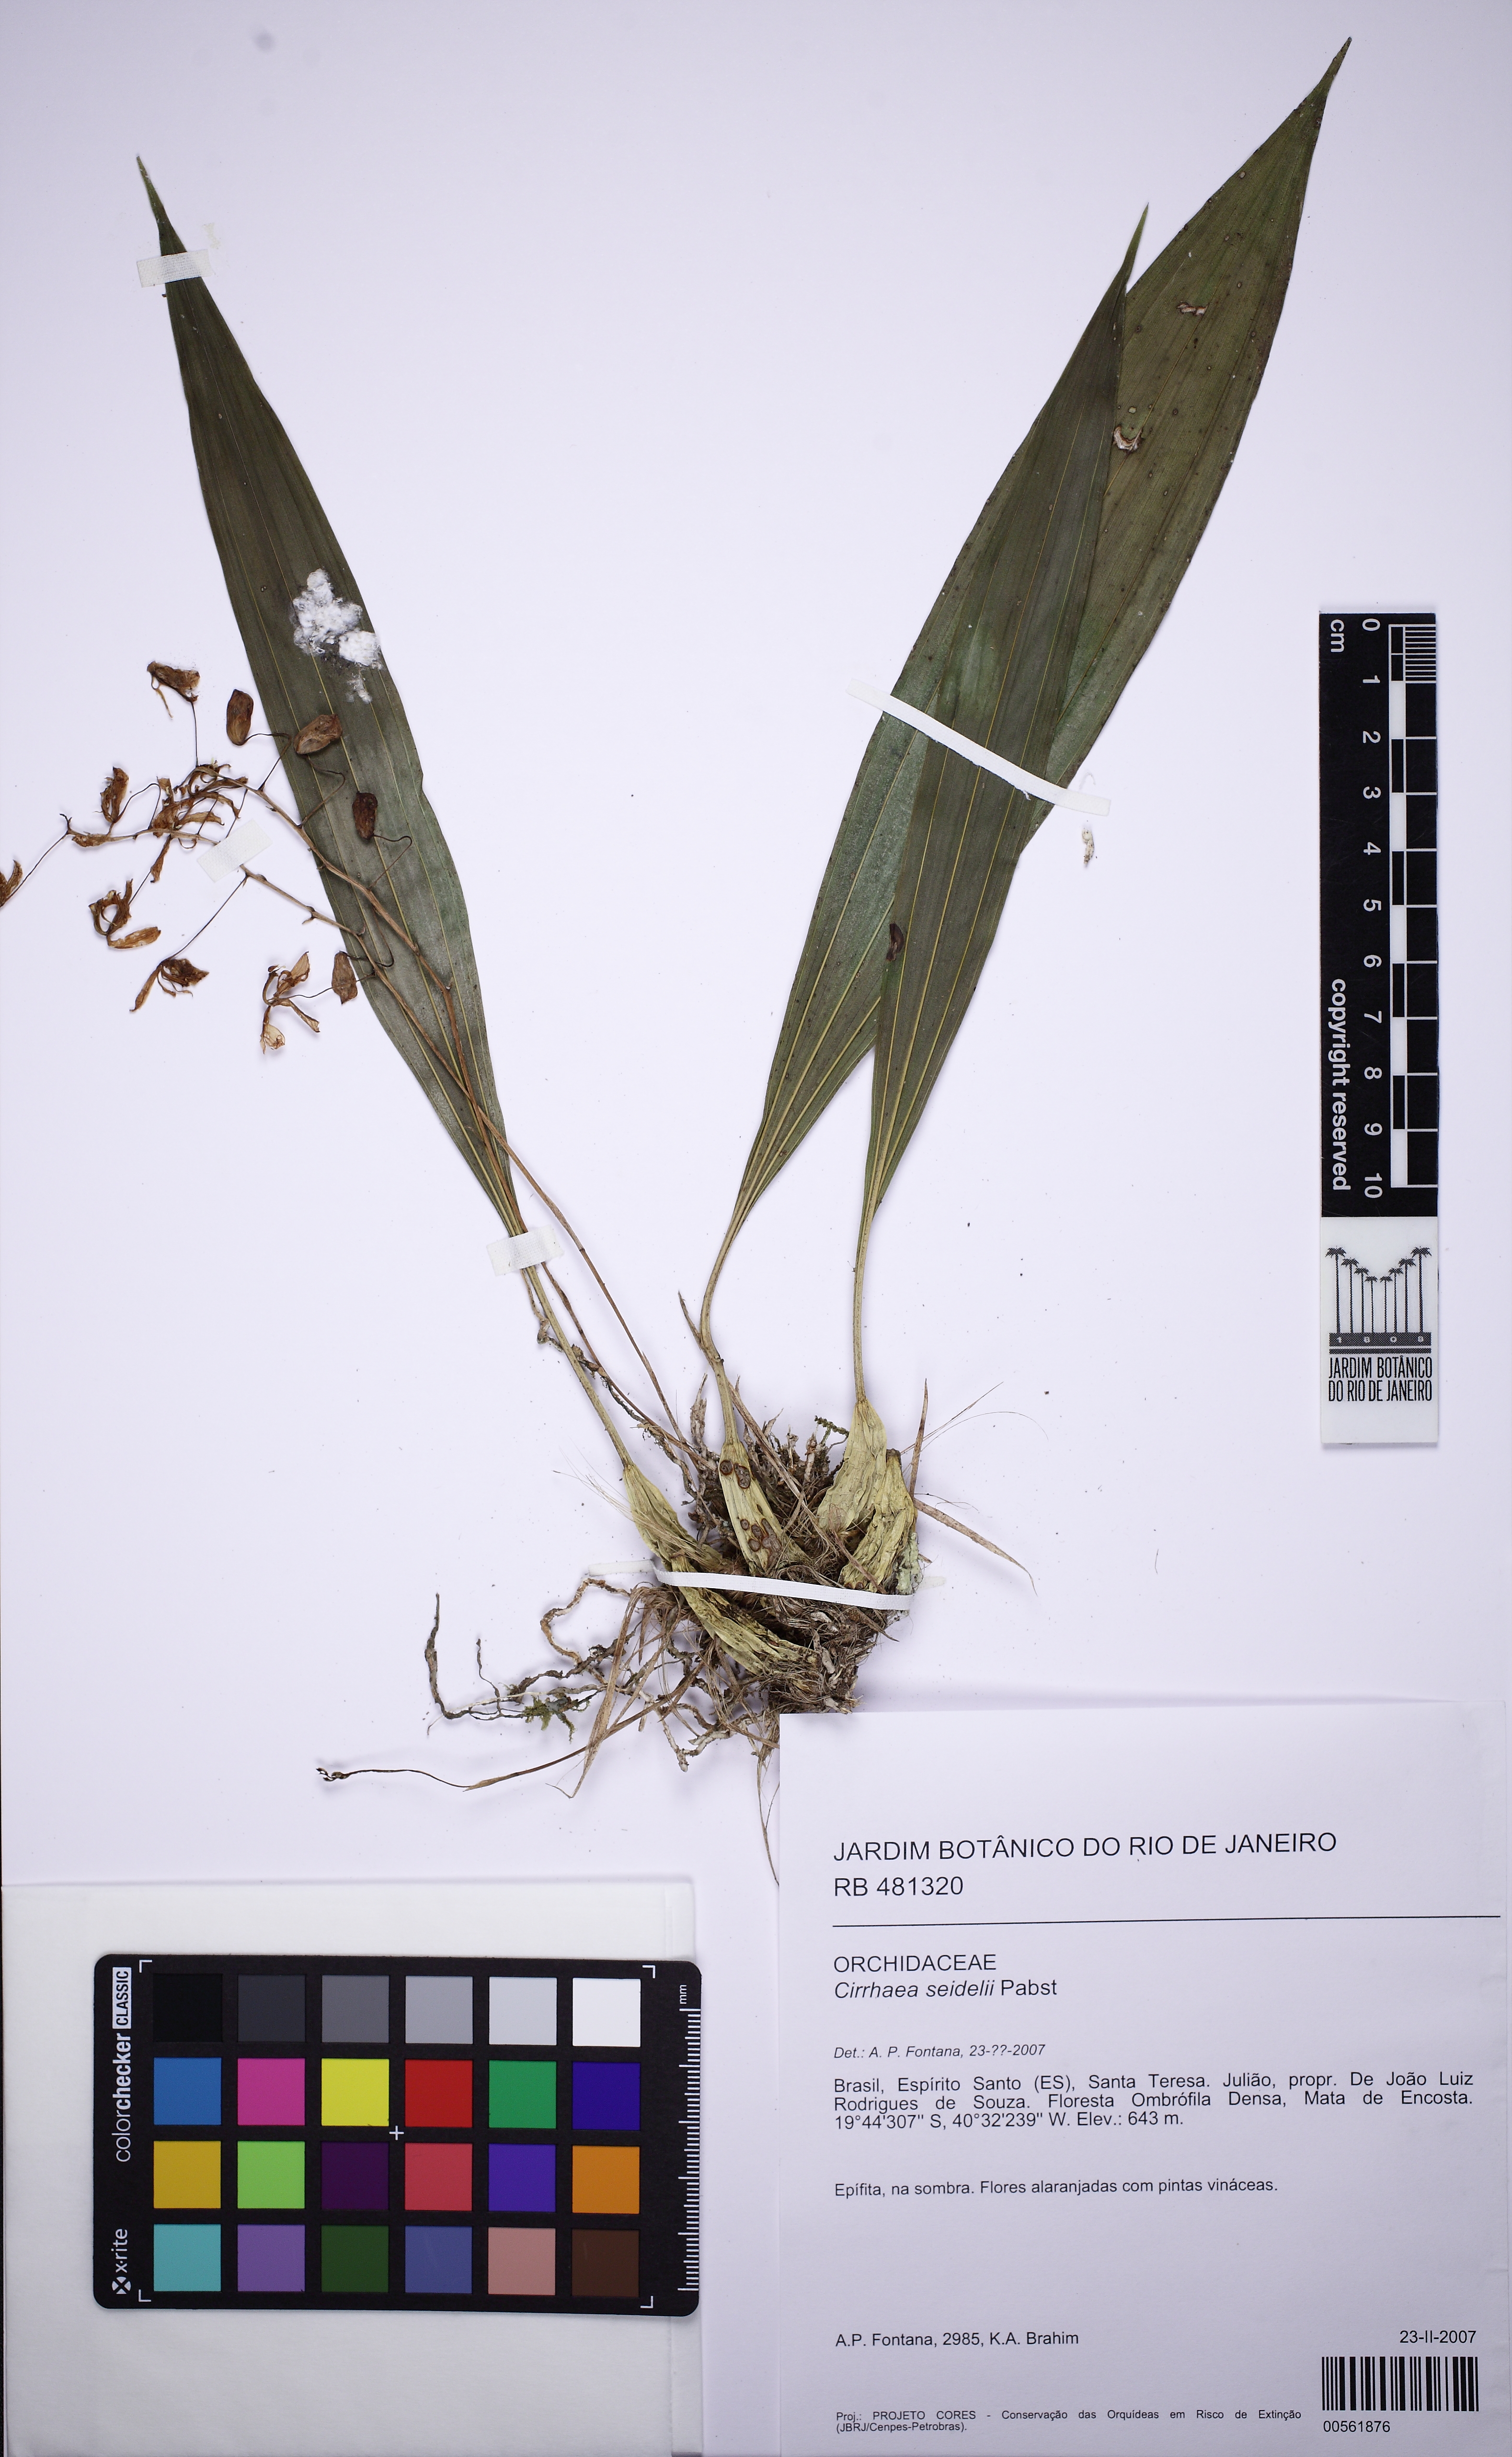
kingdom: Plantae
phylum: Tracheophyta
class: Liliopsida
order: Asparagales
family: Orchidaceae
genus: Cirrhaea
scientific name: Cirrhaea seidelii
